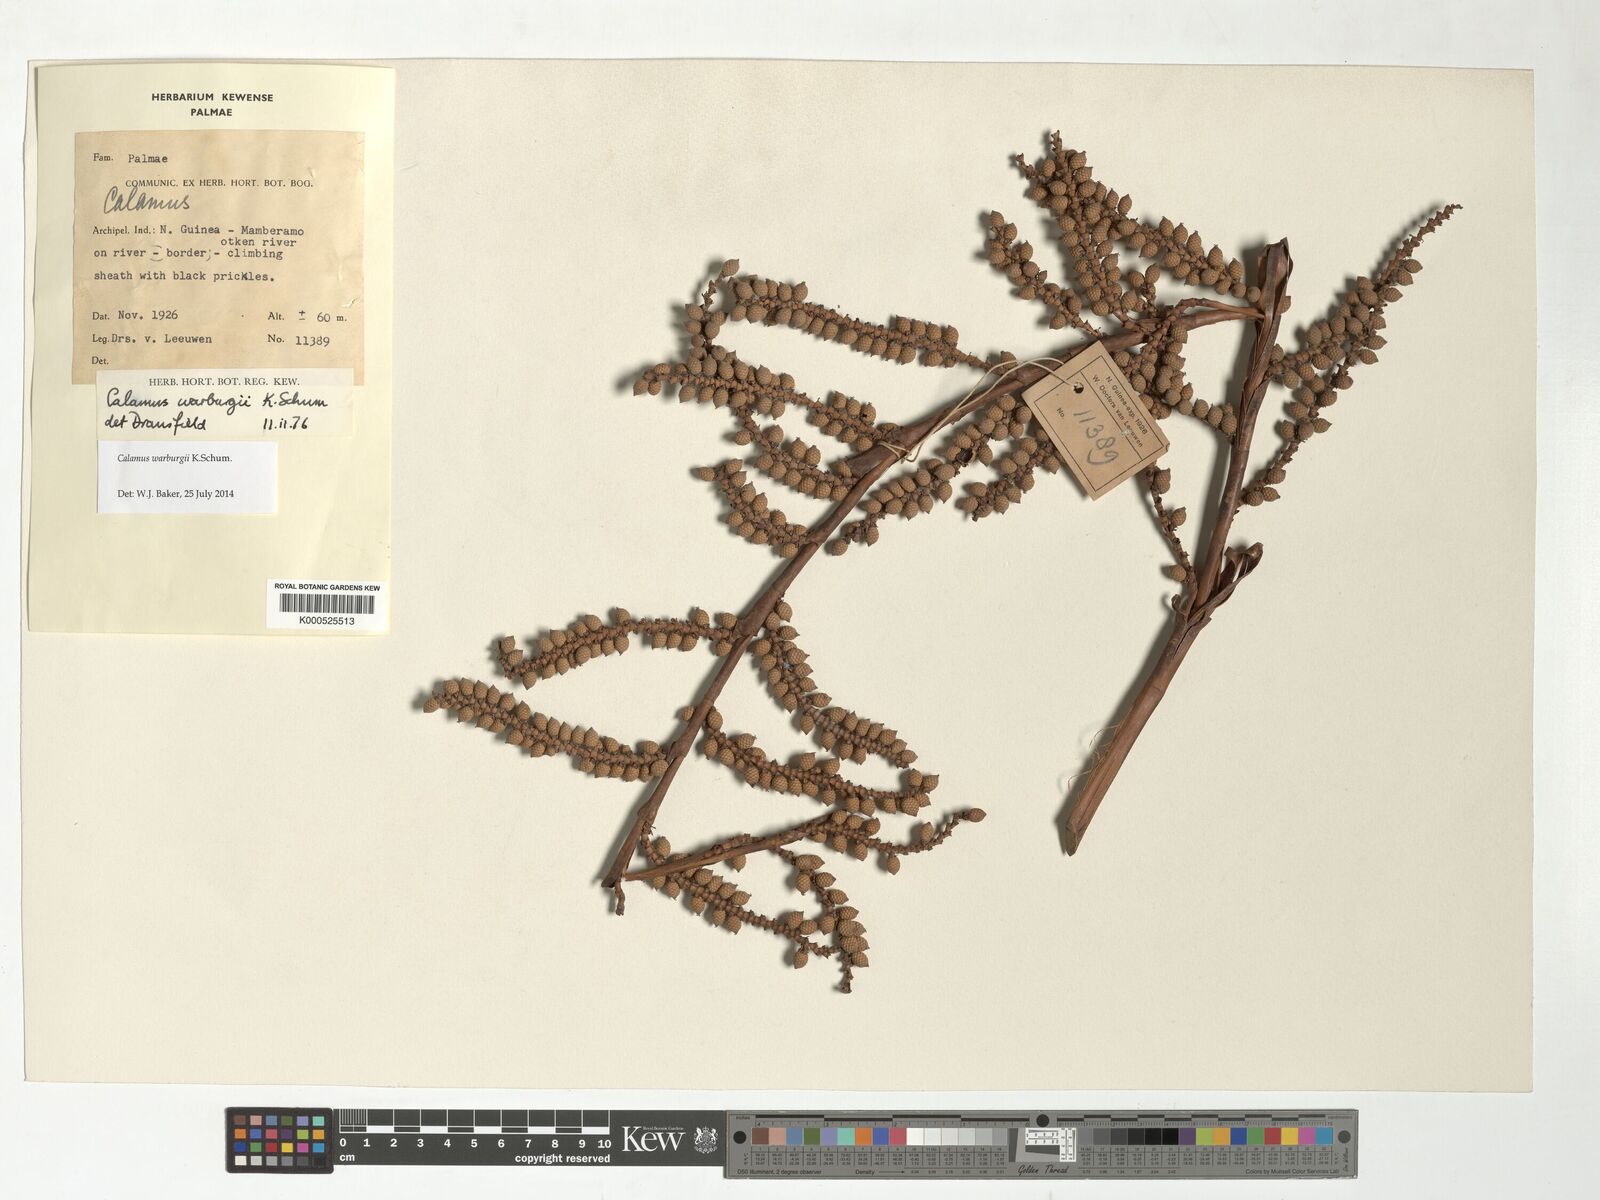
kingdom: Plantae
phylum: Tracheophyta
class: Liliopsida
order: Arecales
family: Arecaceae
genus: Calamus
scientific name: Calamus warburgii
